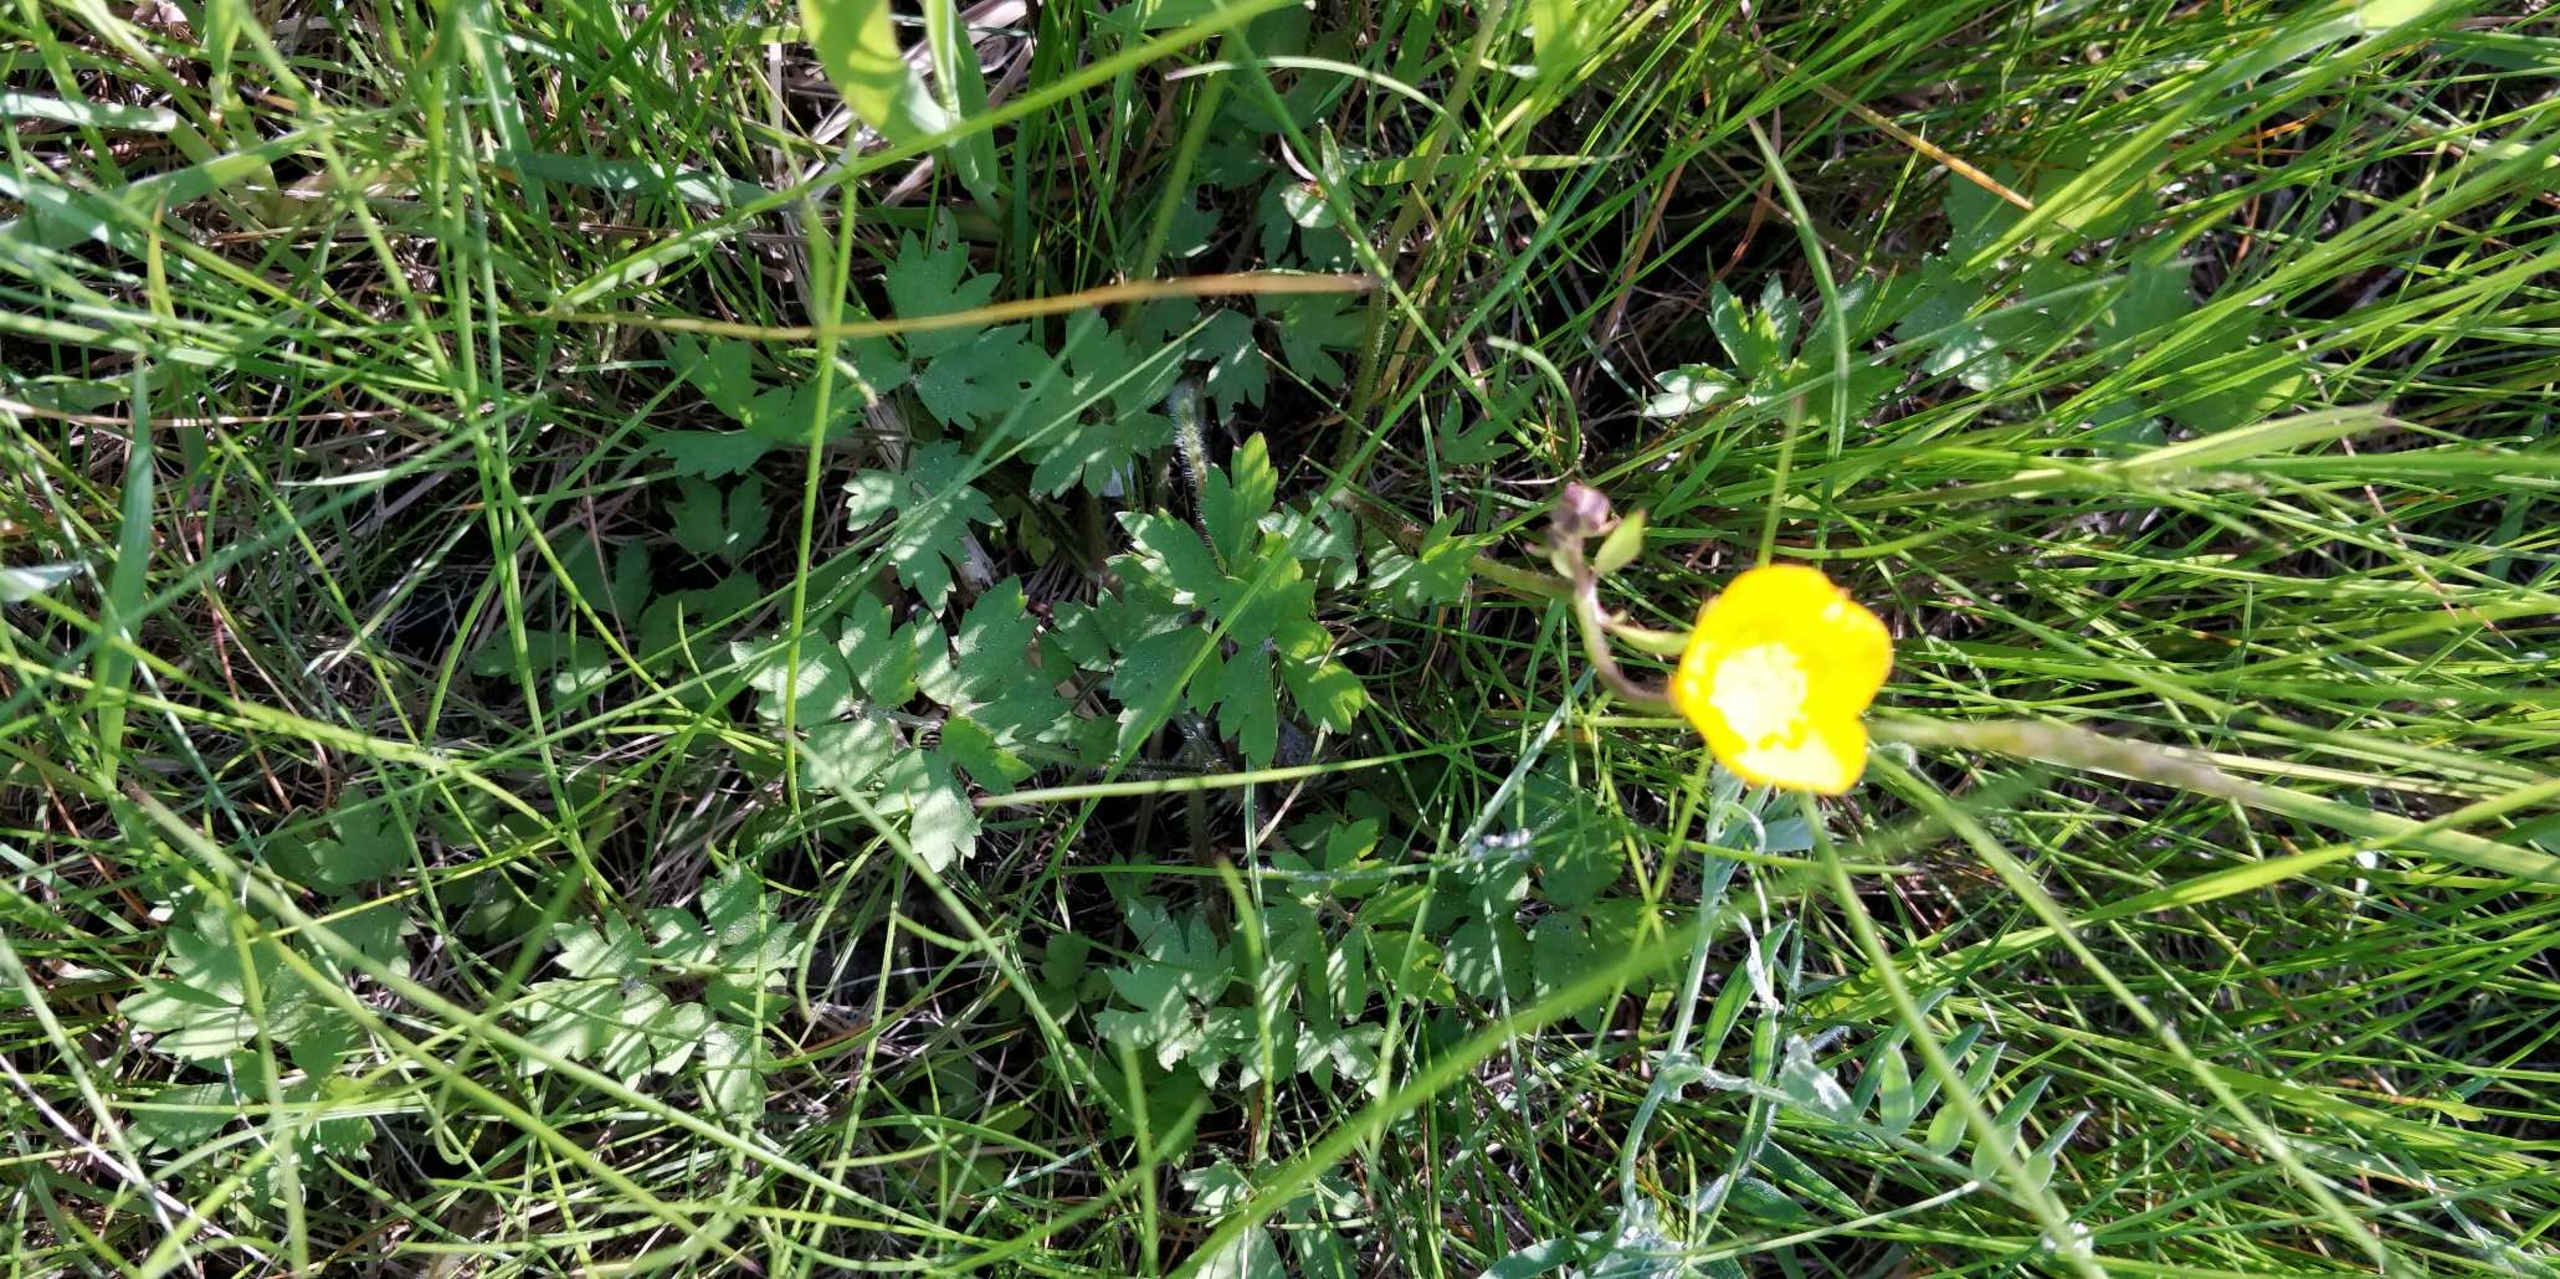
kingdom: Plantae
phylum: Tracheophyta
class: Magnoliopsida
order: Ranunculales
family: Ranunculaceae
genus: Ranunculus
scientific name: Ranunculus repens
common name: Lav ranunkel
